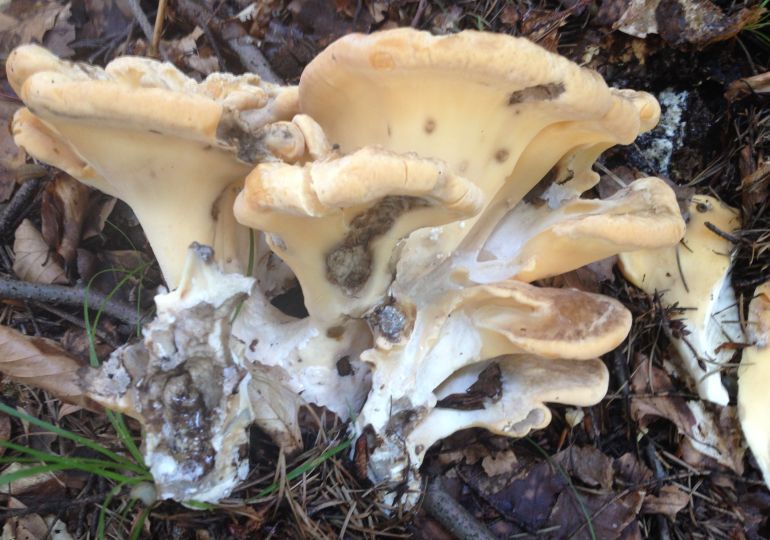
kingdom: Fungi
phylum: Basidiomycota
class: Agaricomycetes
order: Polyporales
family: Meripilaceae
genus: Meripilus
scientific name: Meripilus giganteus
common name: kæmpeporesvamp
